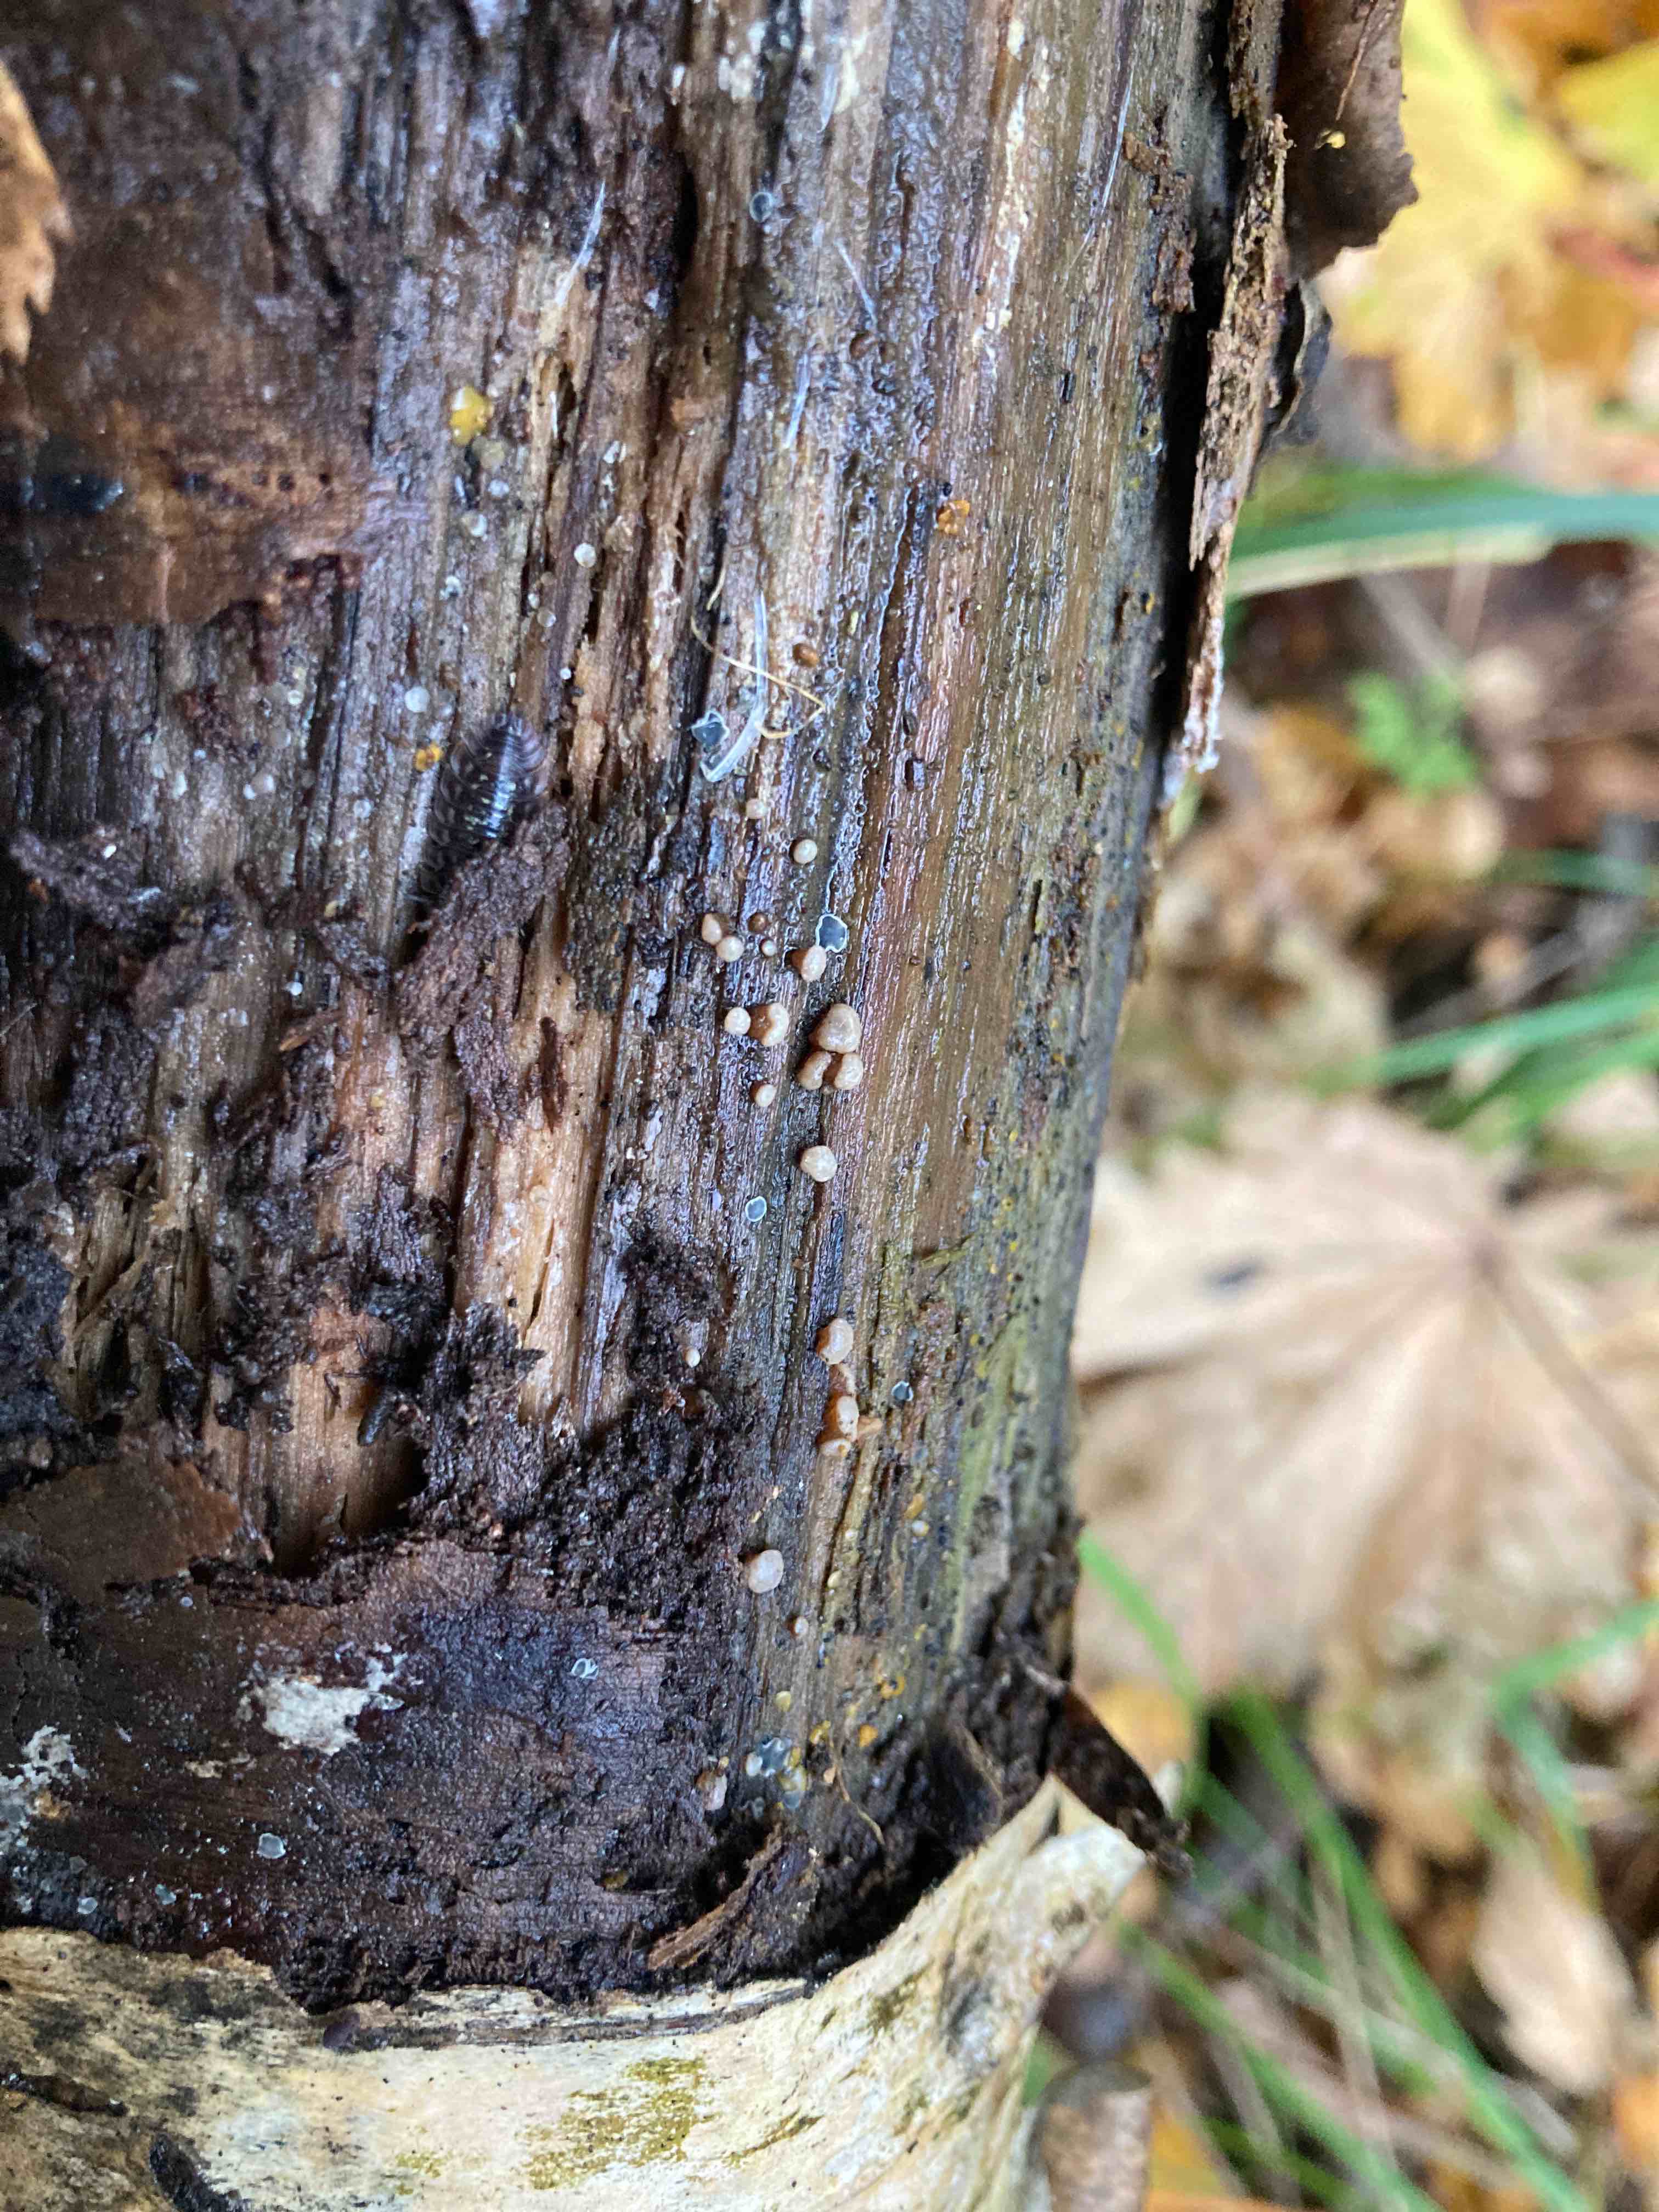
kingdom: Fungi
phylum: Ascomycota
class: Leotiomycetes
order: Helotiales
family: Gelatinodiscaceae
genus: Ascocoryne
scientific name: Ascocoryne albida
